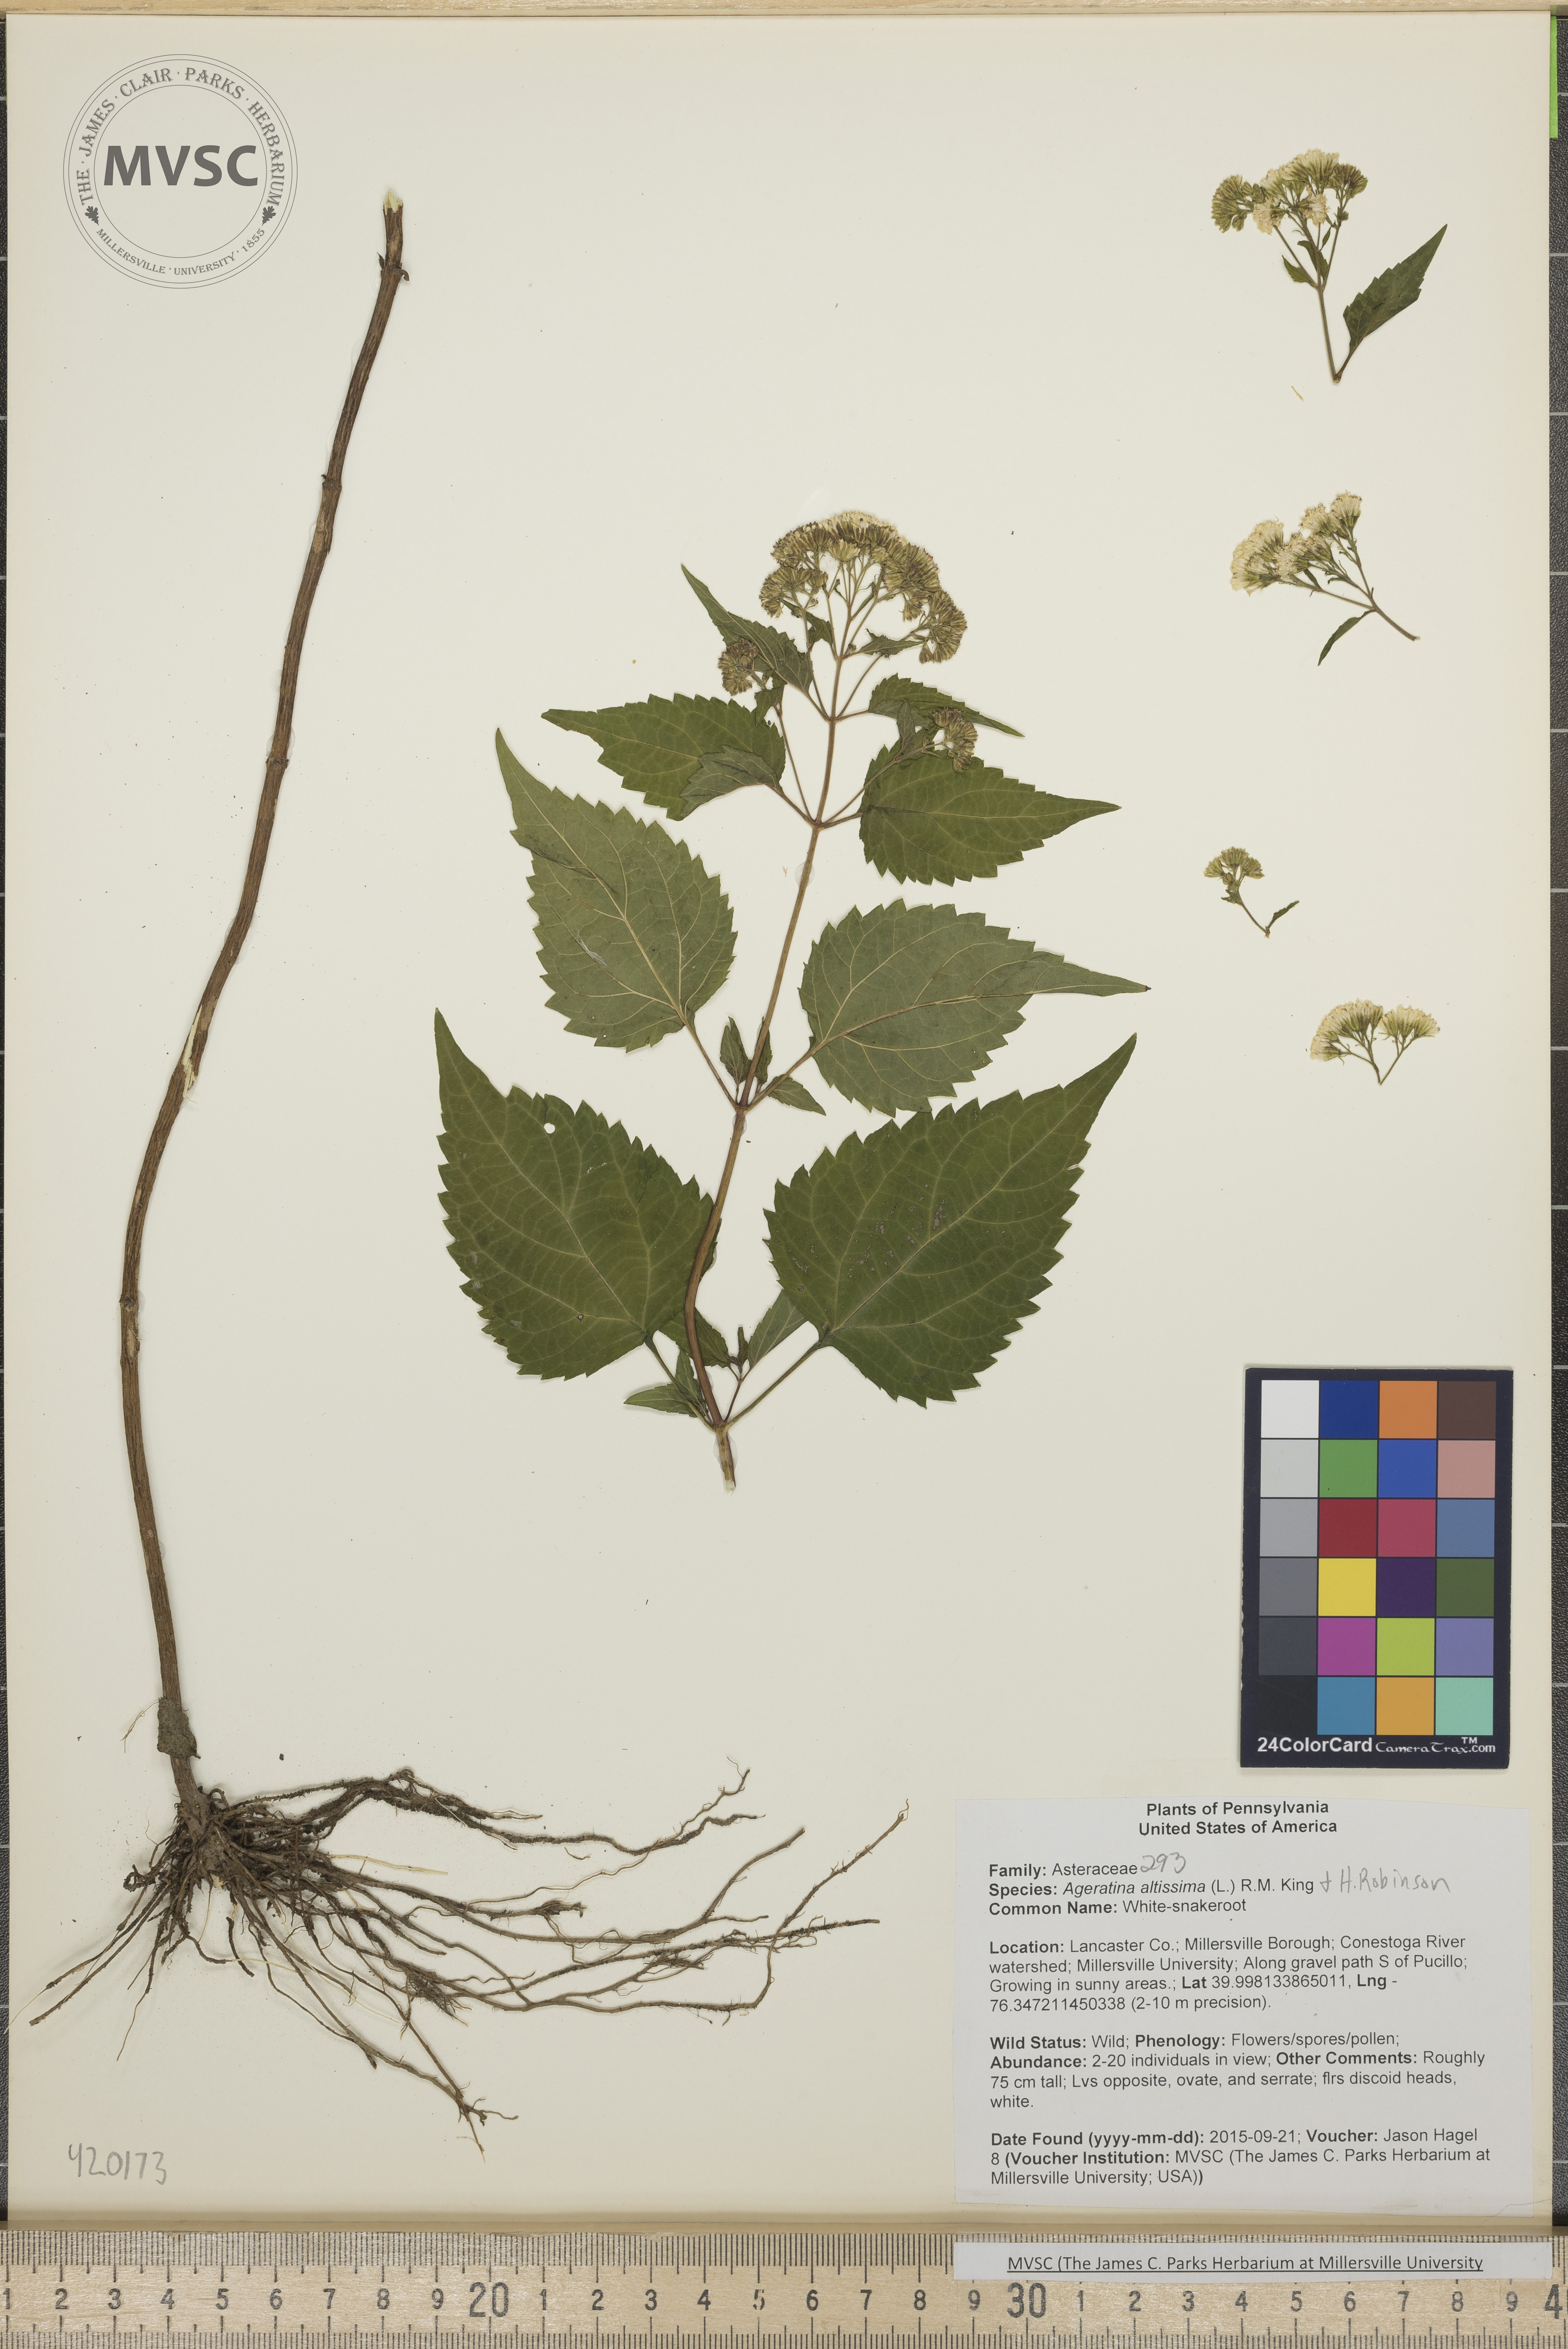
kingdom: Plantae
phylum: Tracheophyta
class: Magnoliopsida
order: Asterales
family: Asteraceae
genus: Ageratina
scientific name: Ageratina altissima
